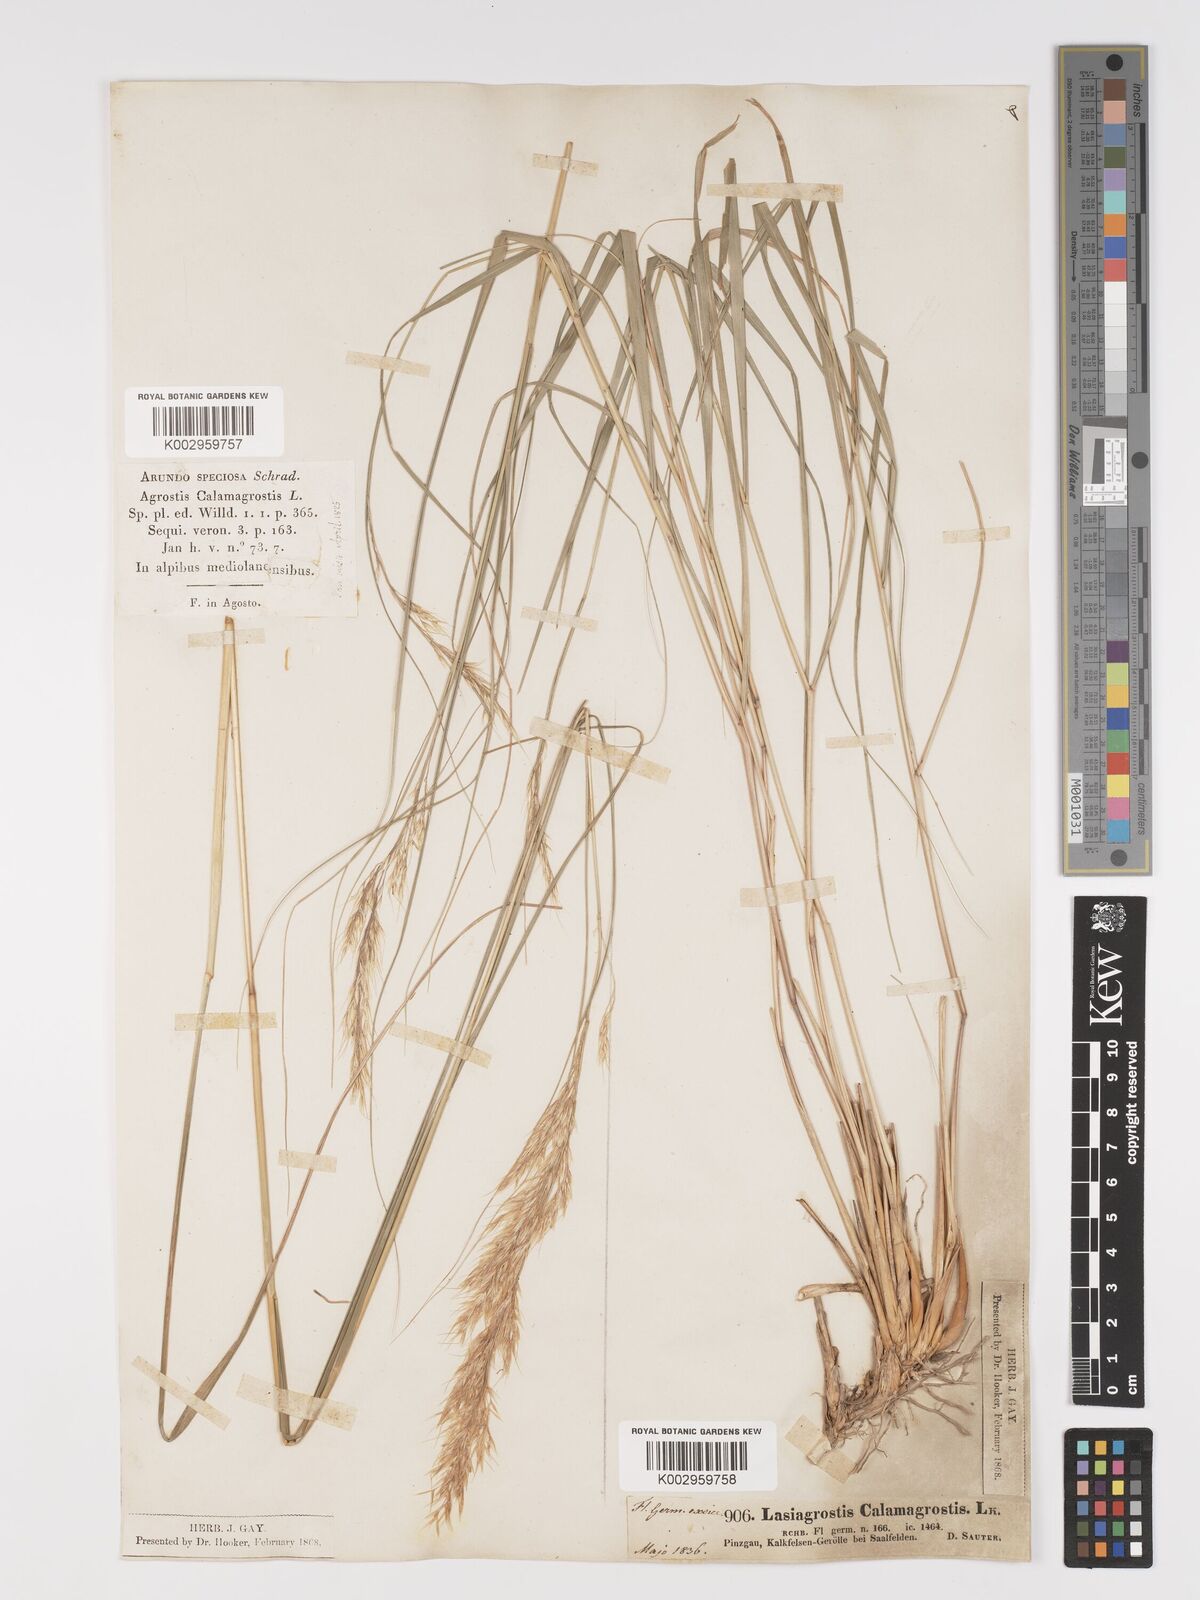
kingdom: Plantae
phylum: Tracheophyta
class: Liliopsida
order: Poales
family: Poaceae
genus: Achnatherum
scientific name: Achnatherum calamagrostis
